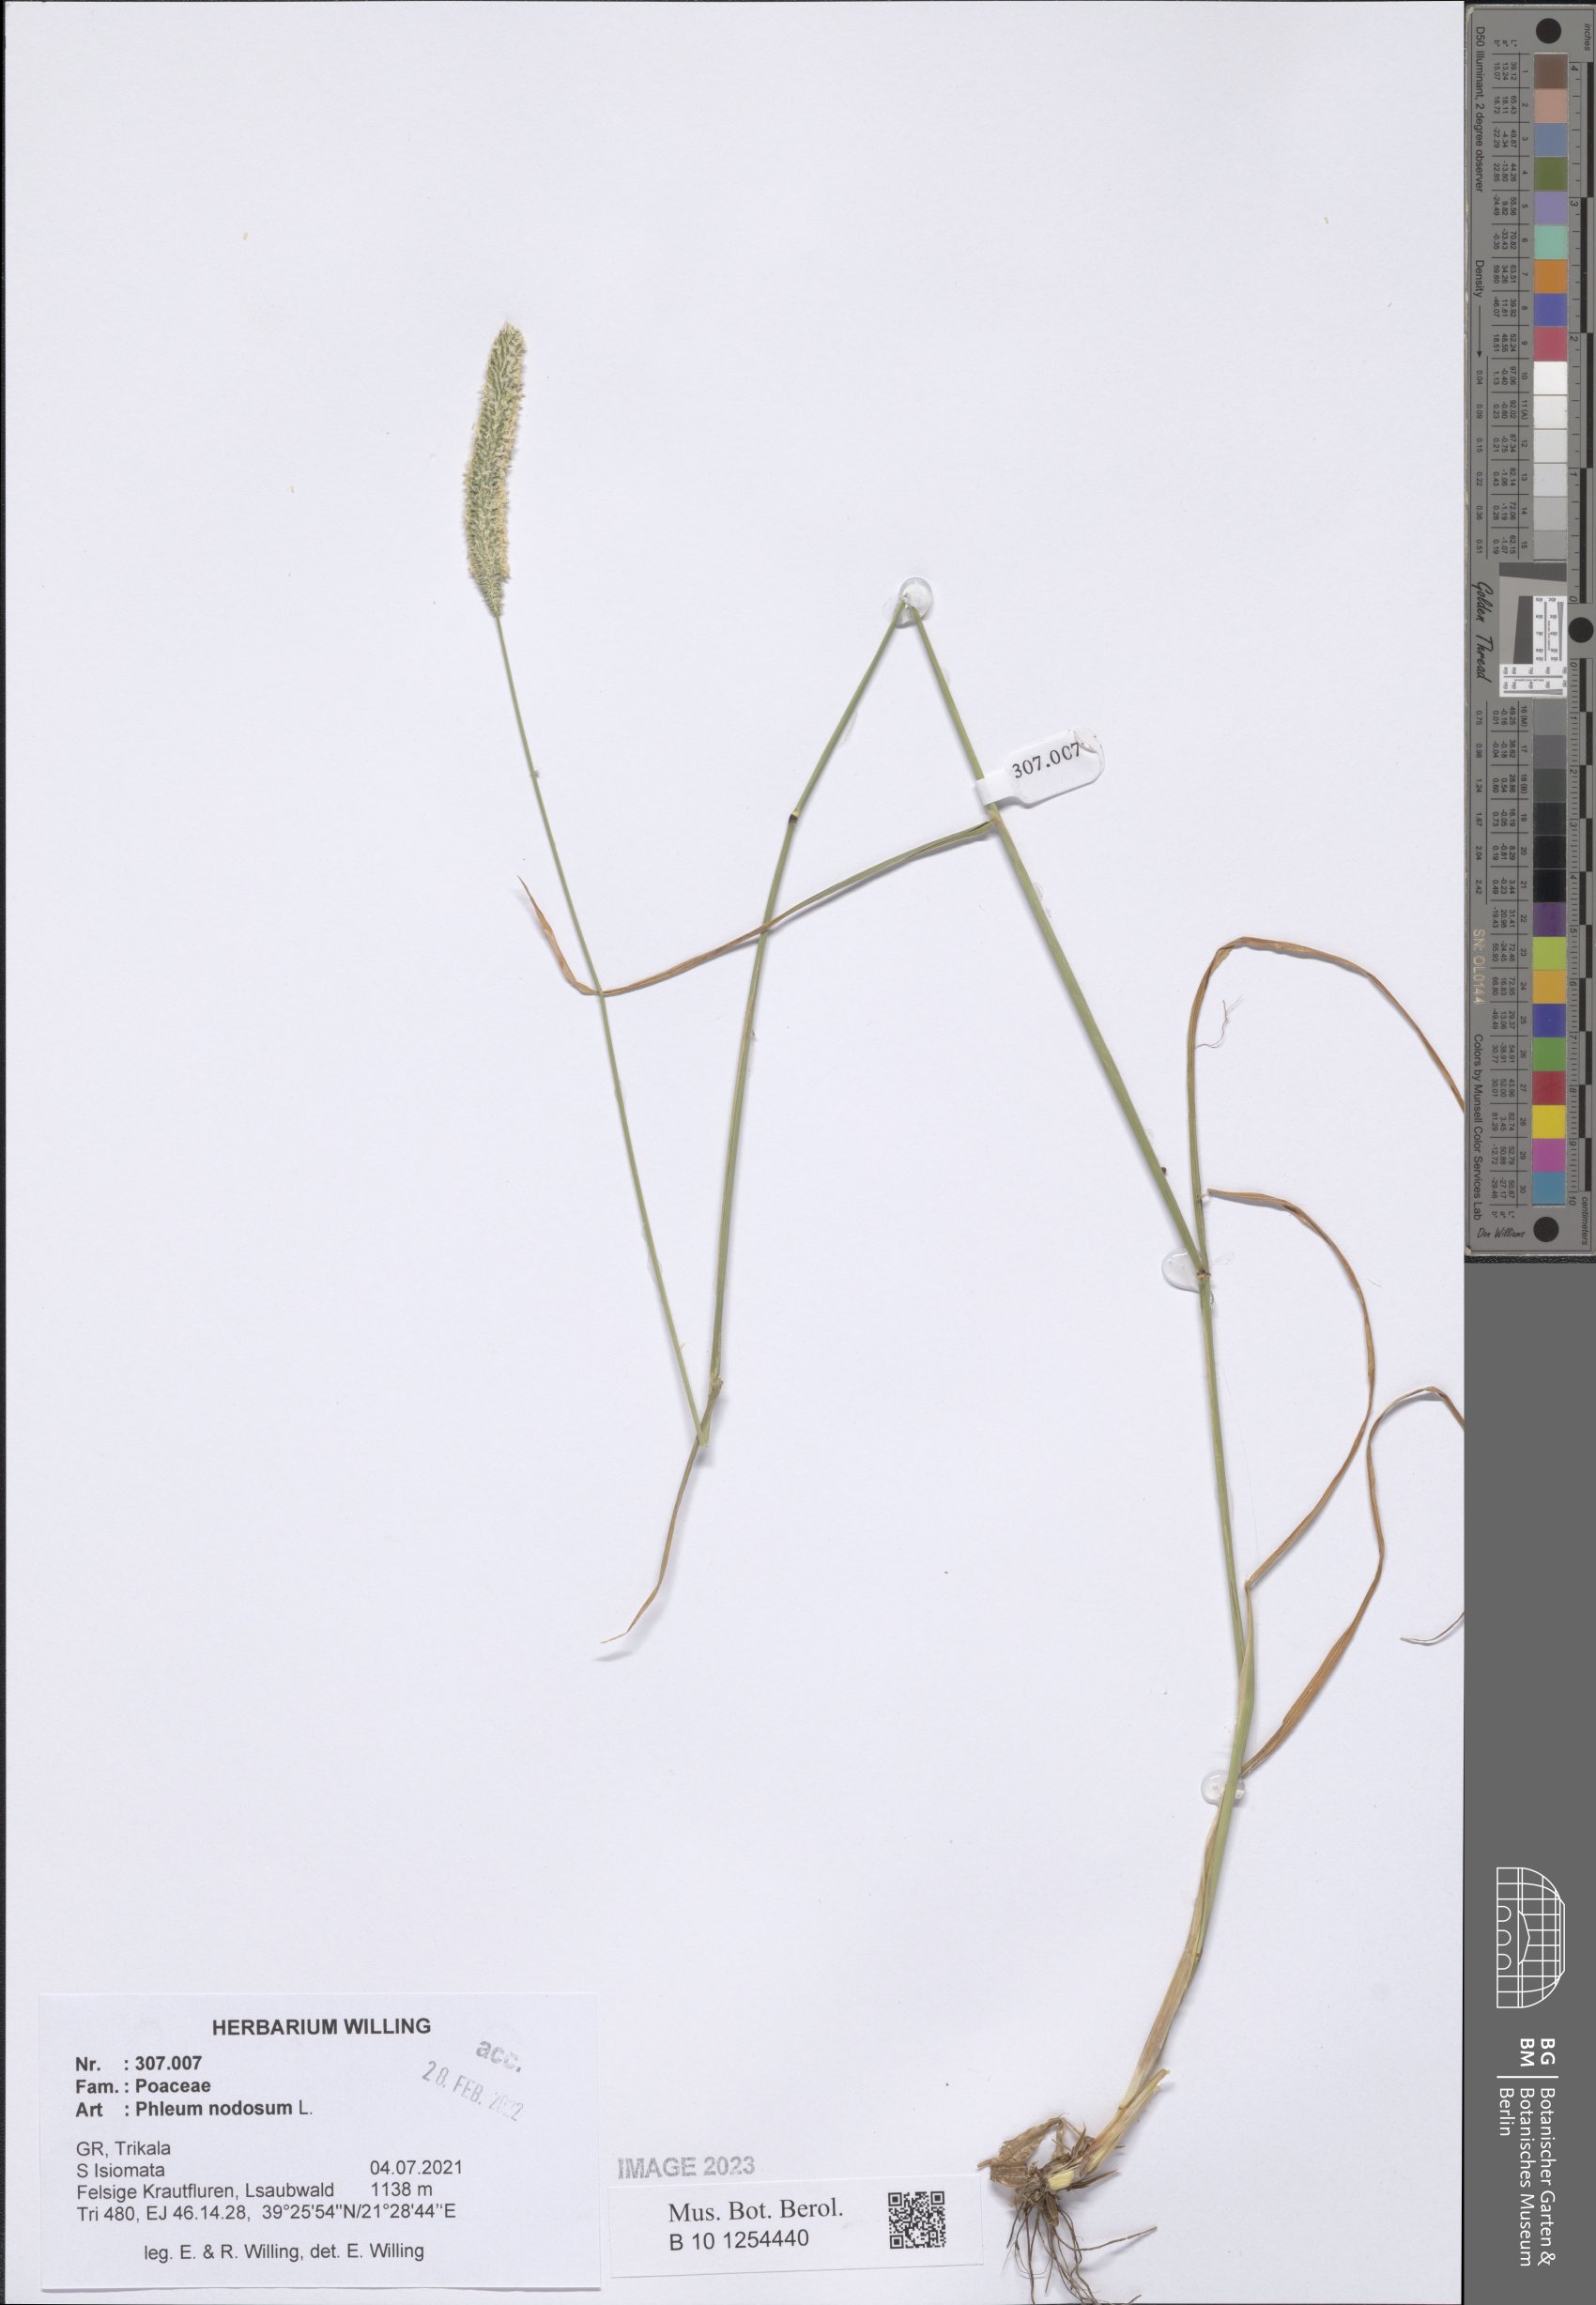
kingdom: Plantae
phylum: Tracheophyta
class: Liliopsida
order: Poales
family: Poaceae
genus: Phleum
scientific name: Phleum pratense
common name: Timothy grass
